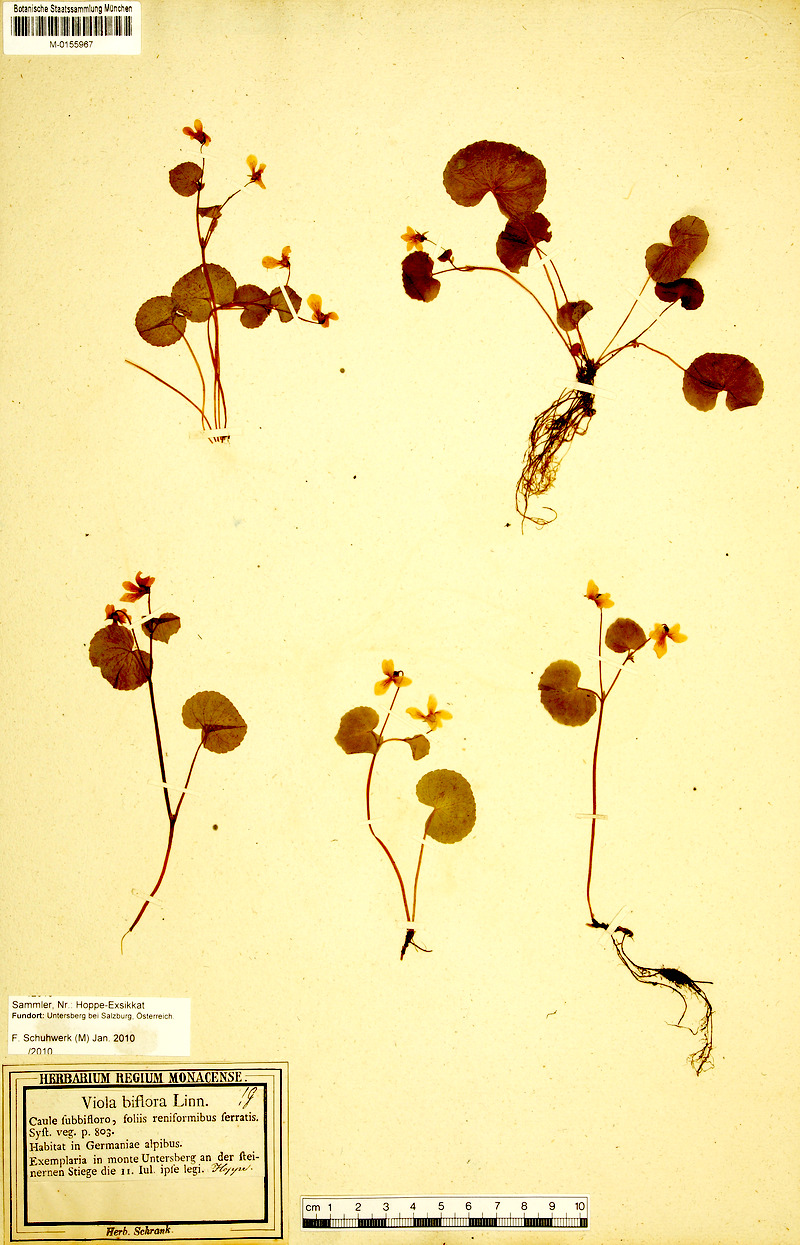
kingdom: Plantae
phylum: Tracheophyta
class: Magnoliopsida
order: Malpighiales
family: Violaceae
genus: Viola
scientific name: Viola biflora
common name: Alpine yellow violet
